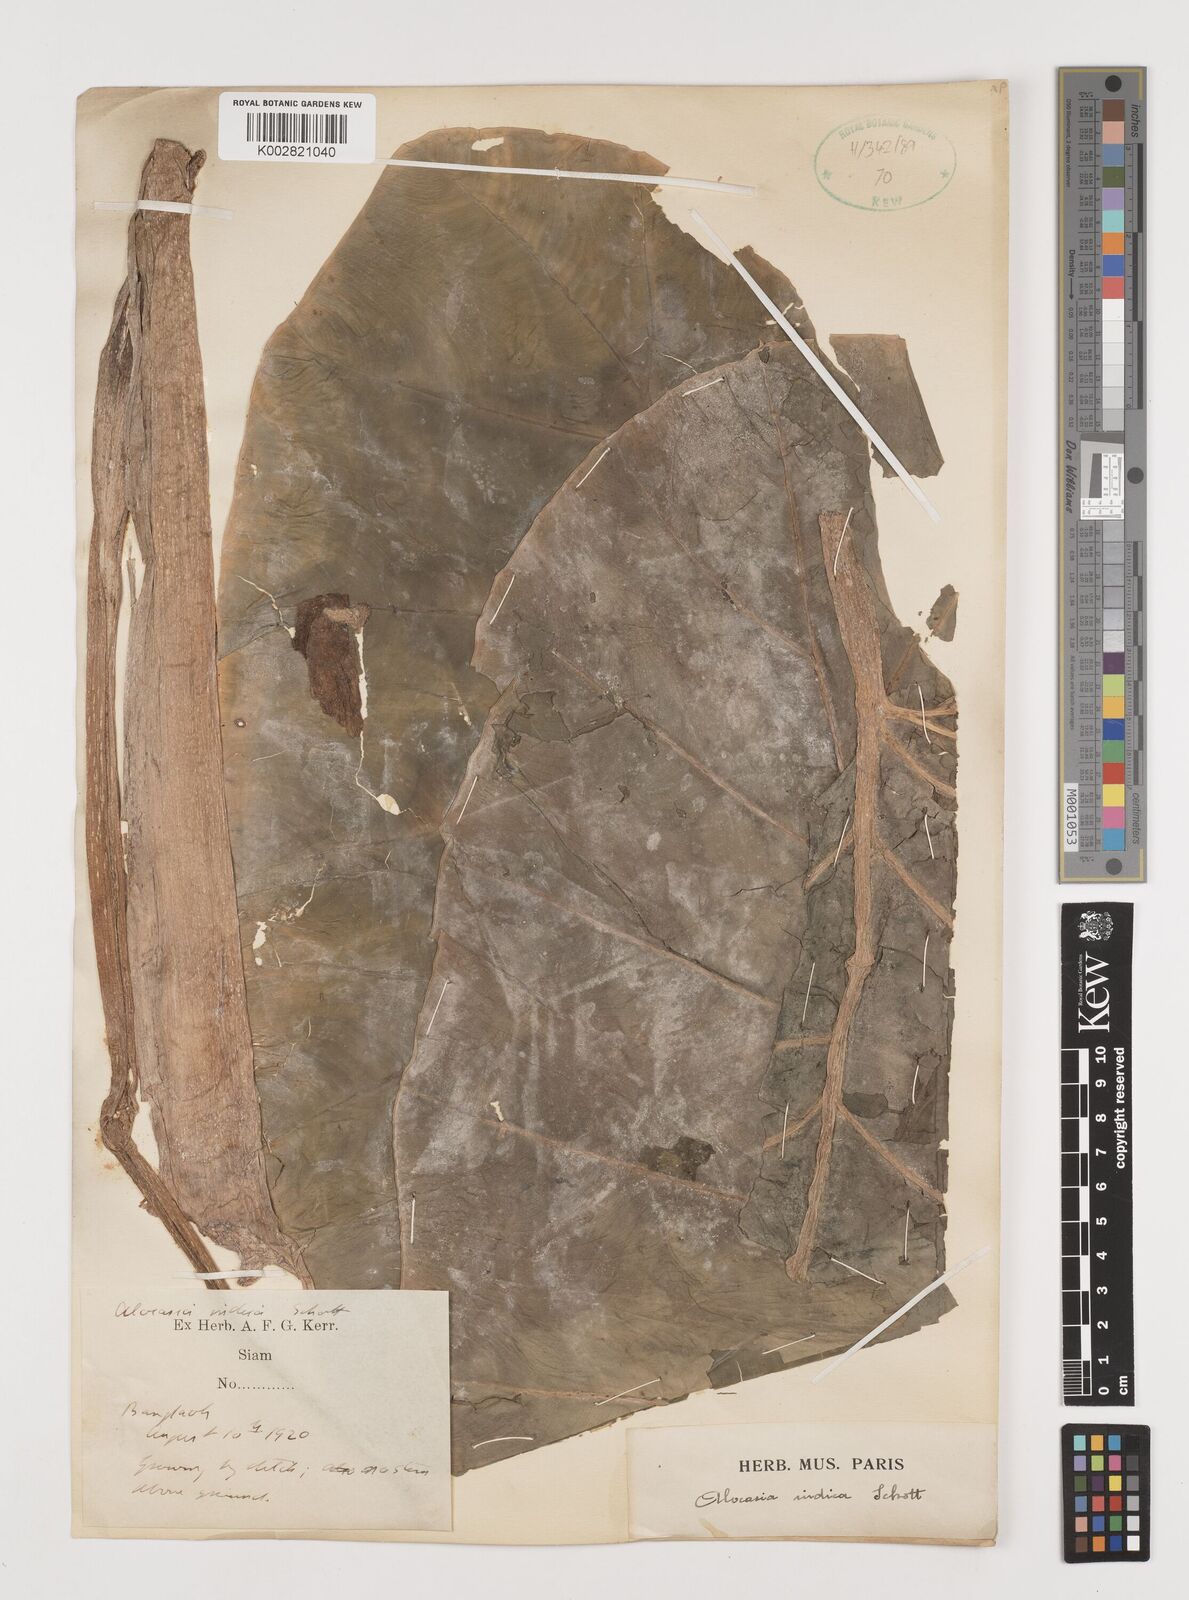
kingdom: Plantae
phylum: Tracheophyta
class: Liliopsida
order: Alismatales
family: Araceae
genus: Alocasia
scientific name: Alocasia macrorrhizos
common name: Giant taro
